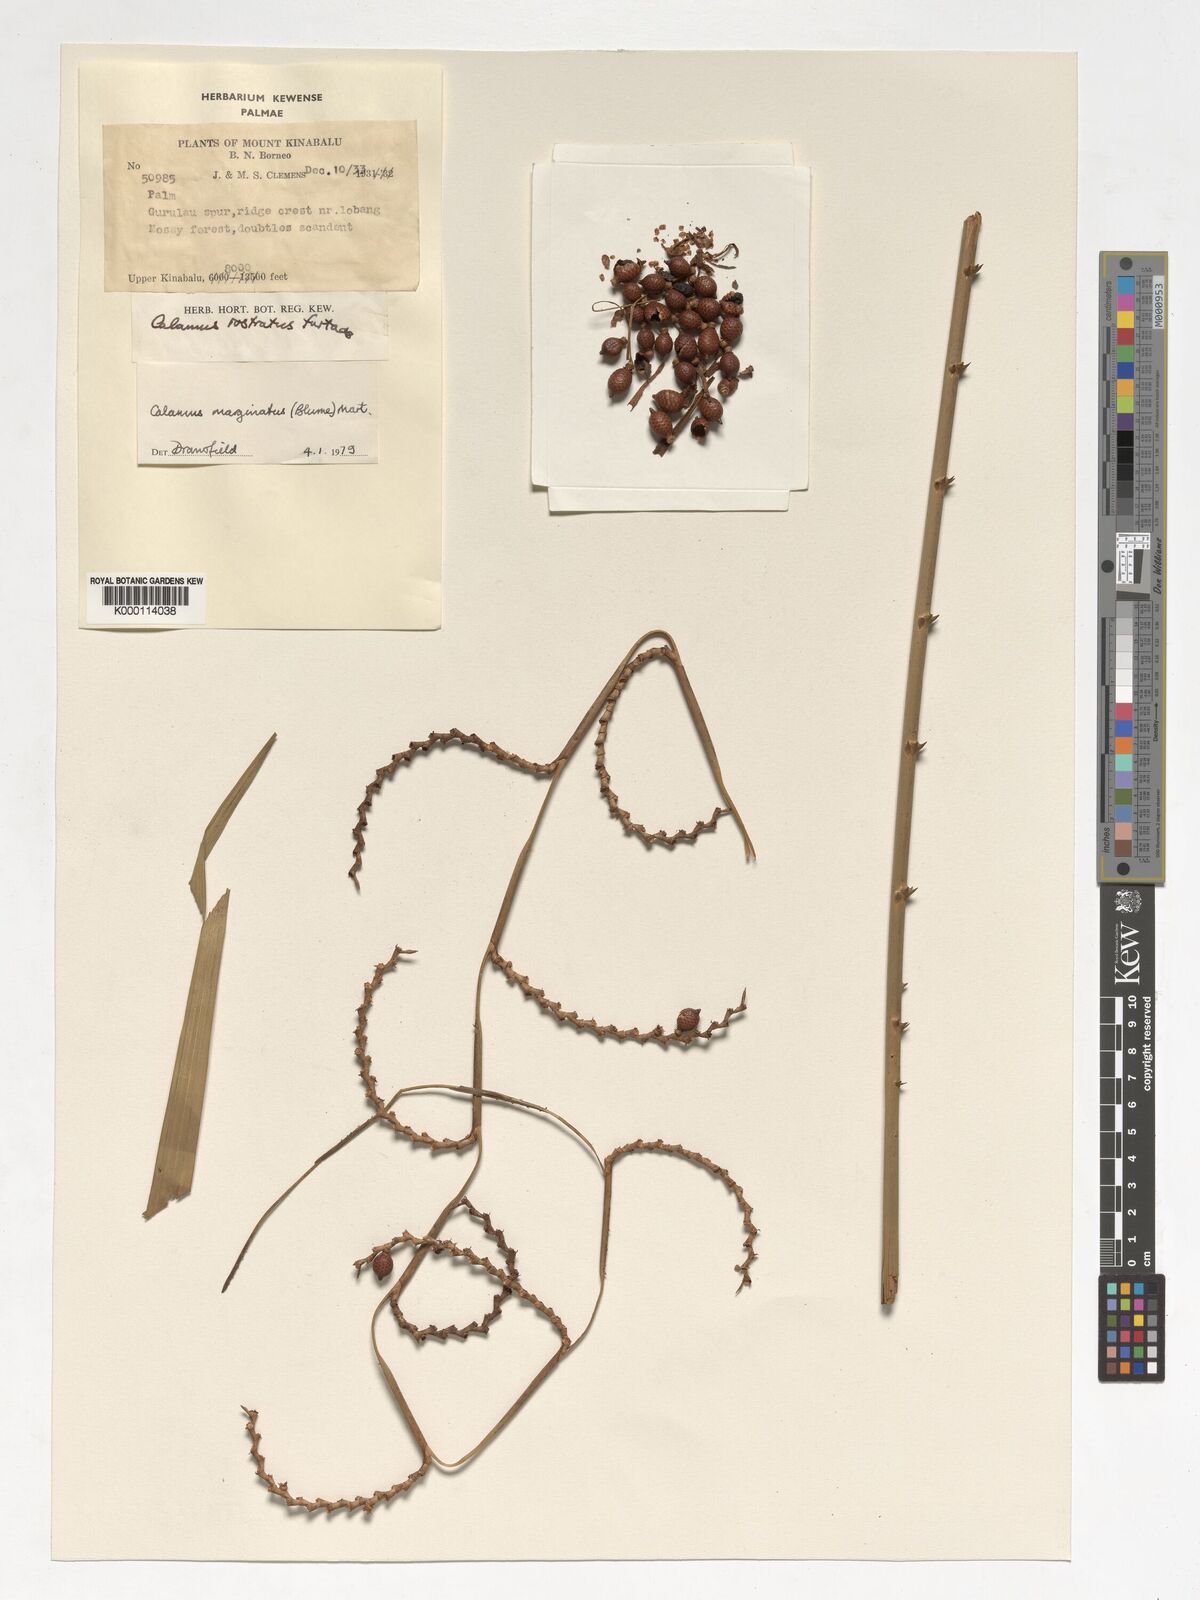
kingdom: Plantae
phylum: Tracheophyta
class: Liliopsida
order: Arecales
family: Arecaceae
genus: Calamus
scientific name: Calamus
